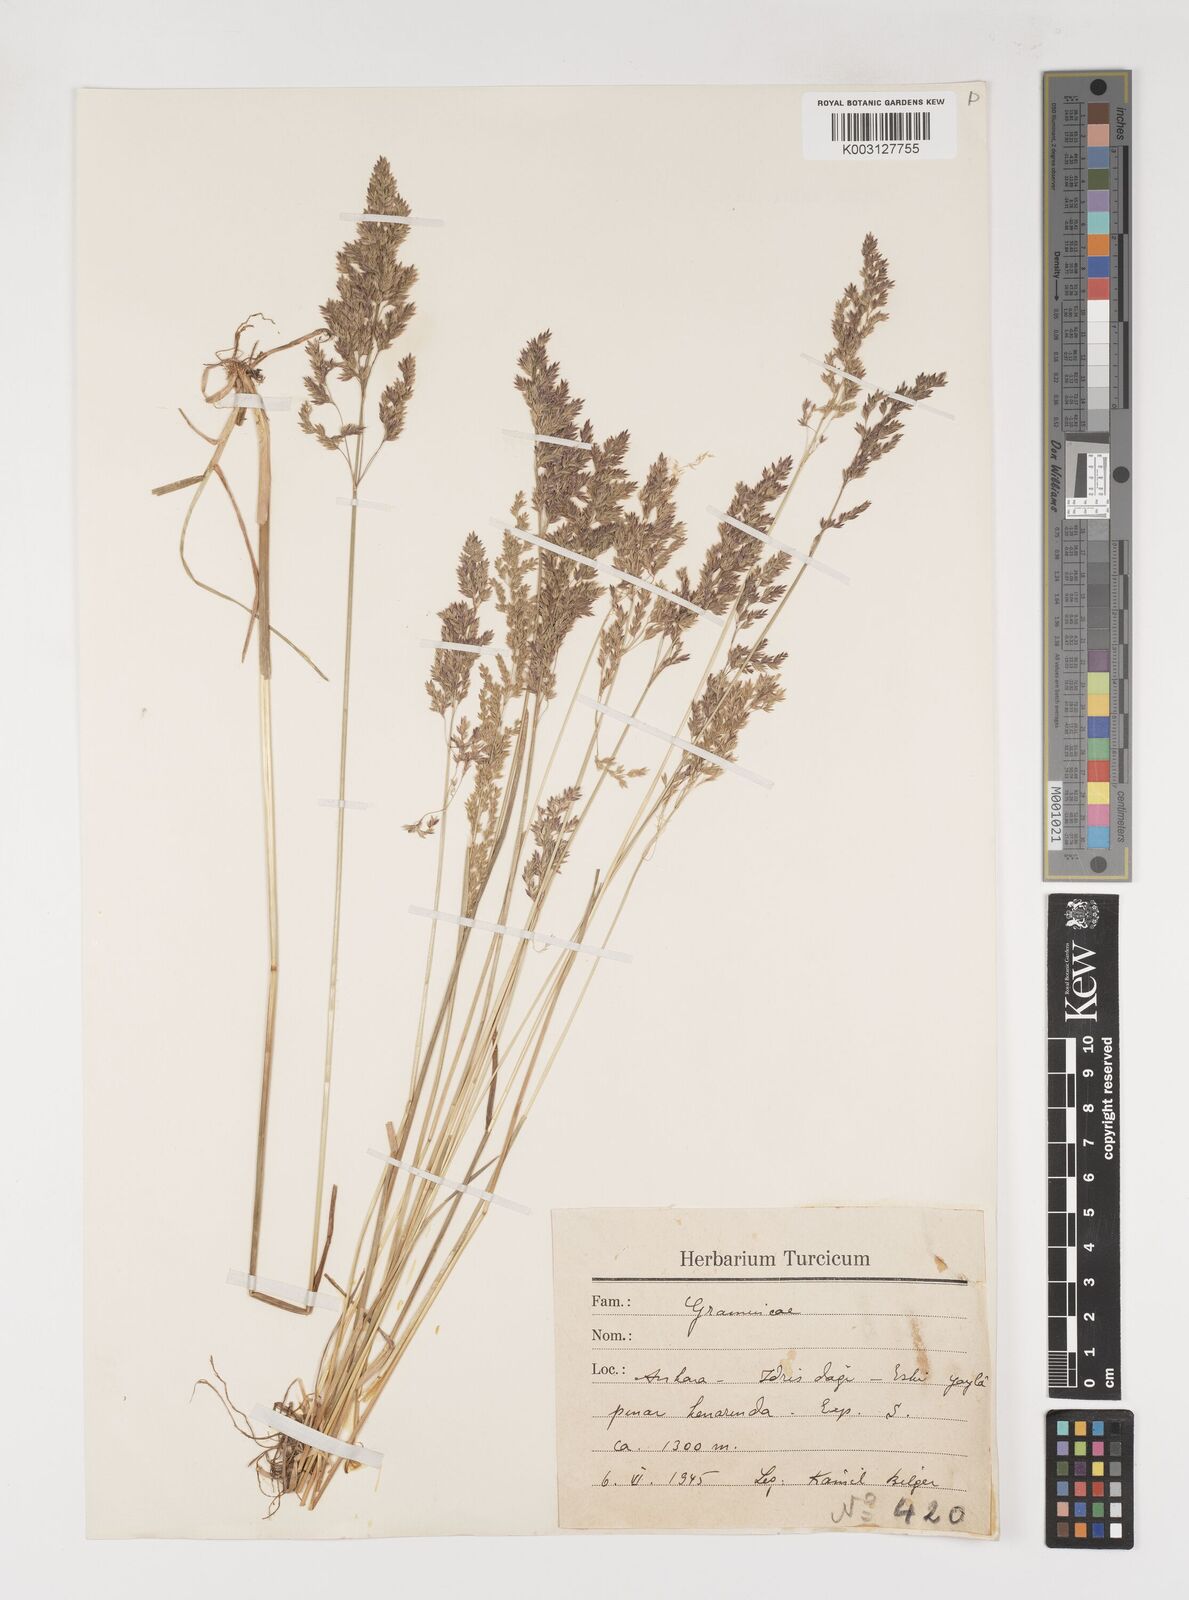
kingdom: Plantae
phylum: Tracheophyta
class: Liliopsida
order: Poales
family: Poaceae
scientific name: Poaceae
